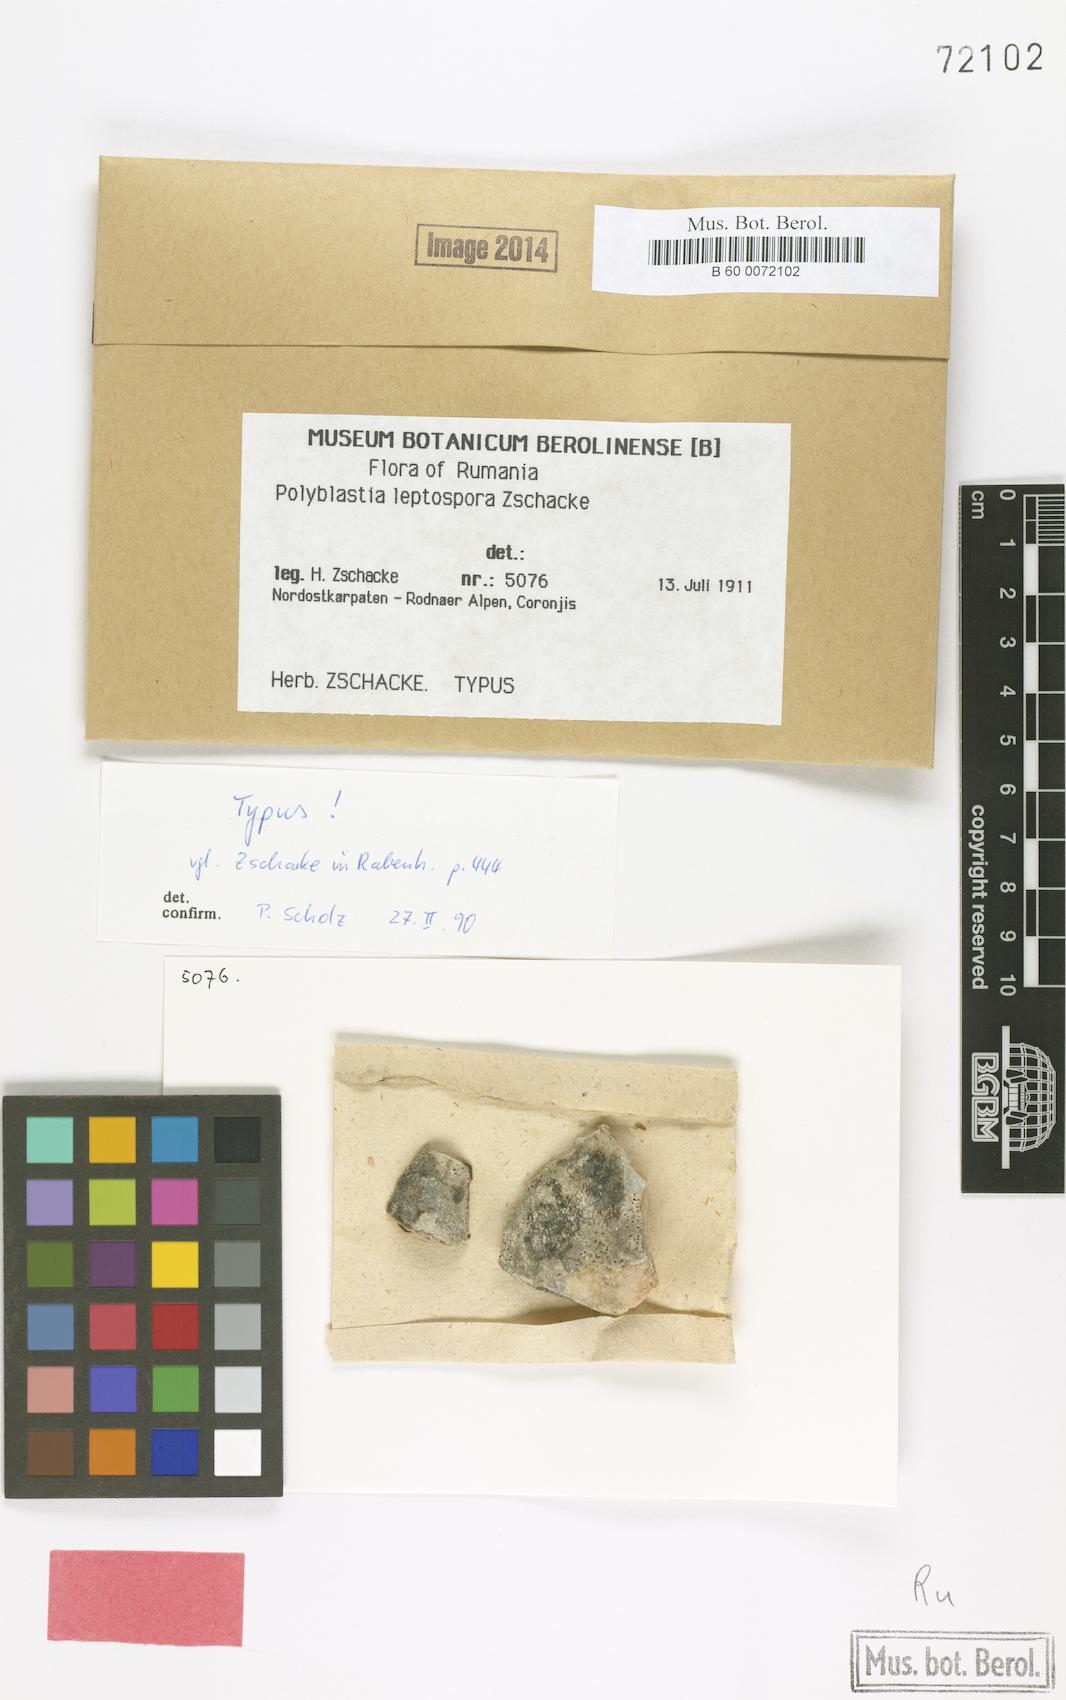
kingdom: Fungi
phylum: Ascomycota
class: Eurotiomycetes
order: Verrucariales
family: Verrucariaceae
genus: Polyblastia
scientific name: Polyblastia
